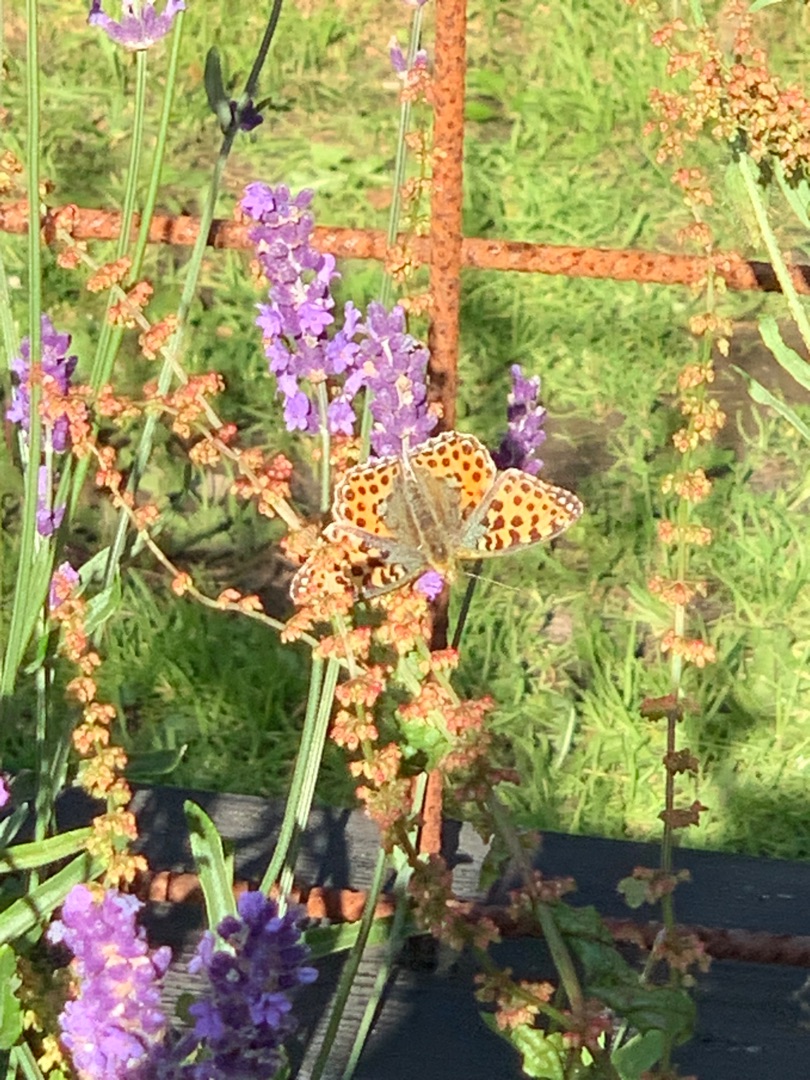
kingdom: Animalia
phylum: Arthropoda
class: Insecta
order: Lepidoptera
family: Nymphalidae
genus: Issoria
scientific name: Issoria lathonia
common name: Storplettet perlemorsommerfugl
